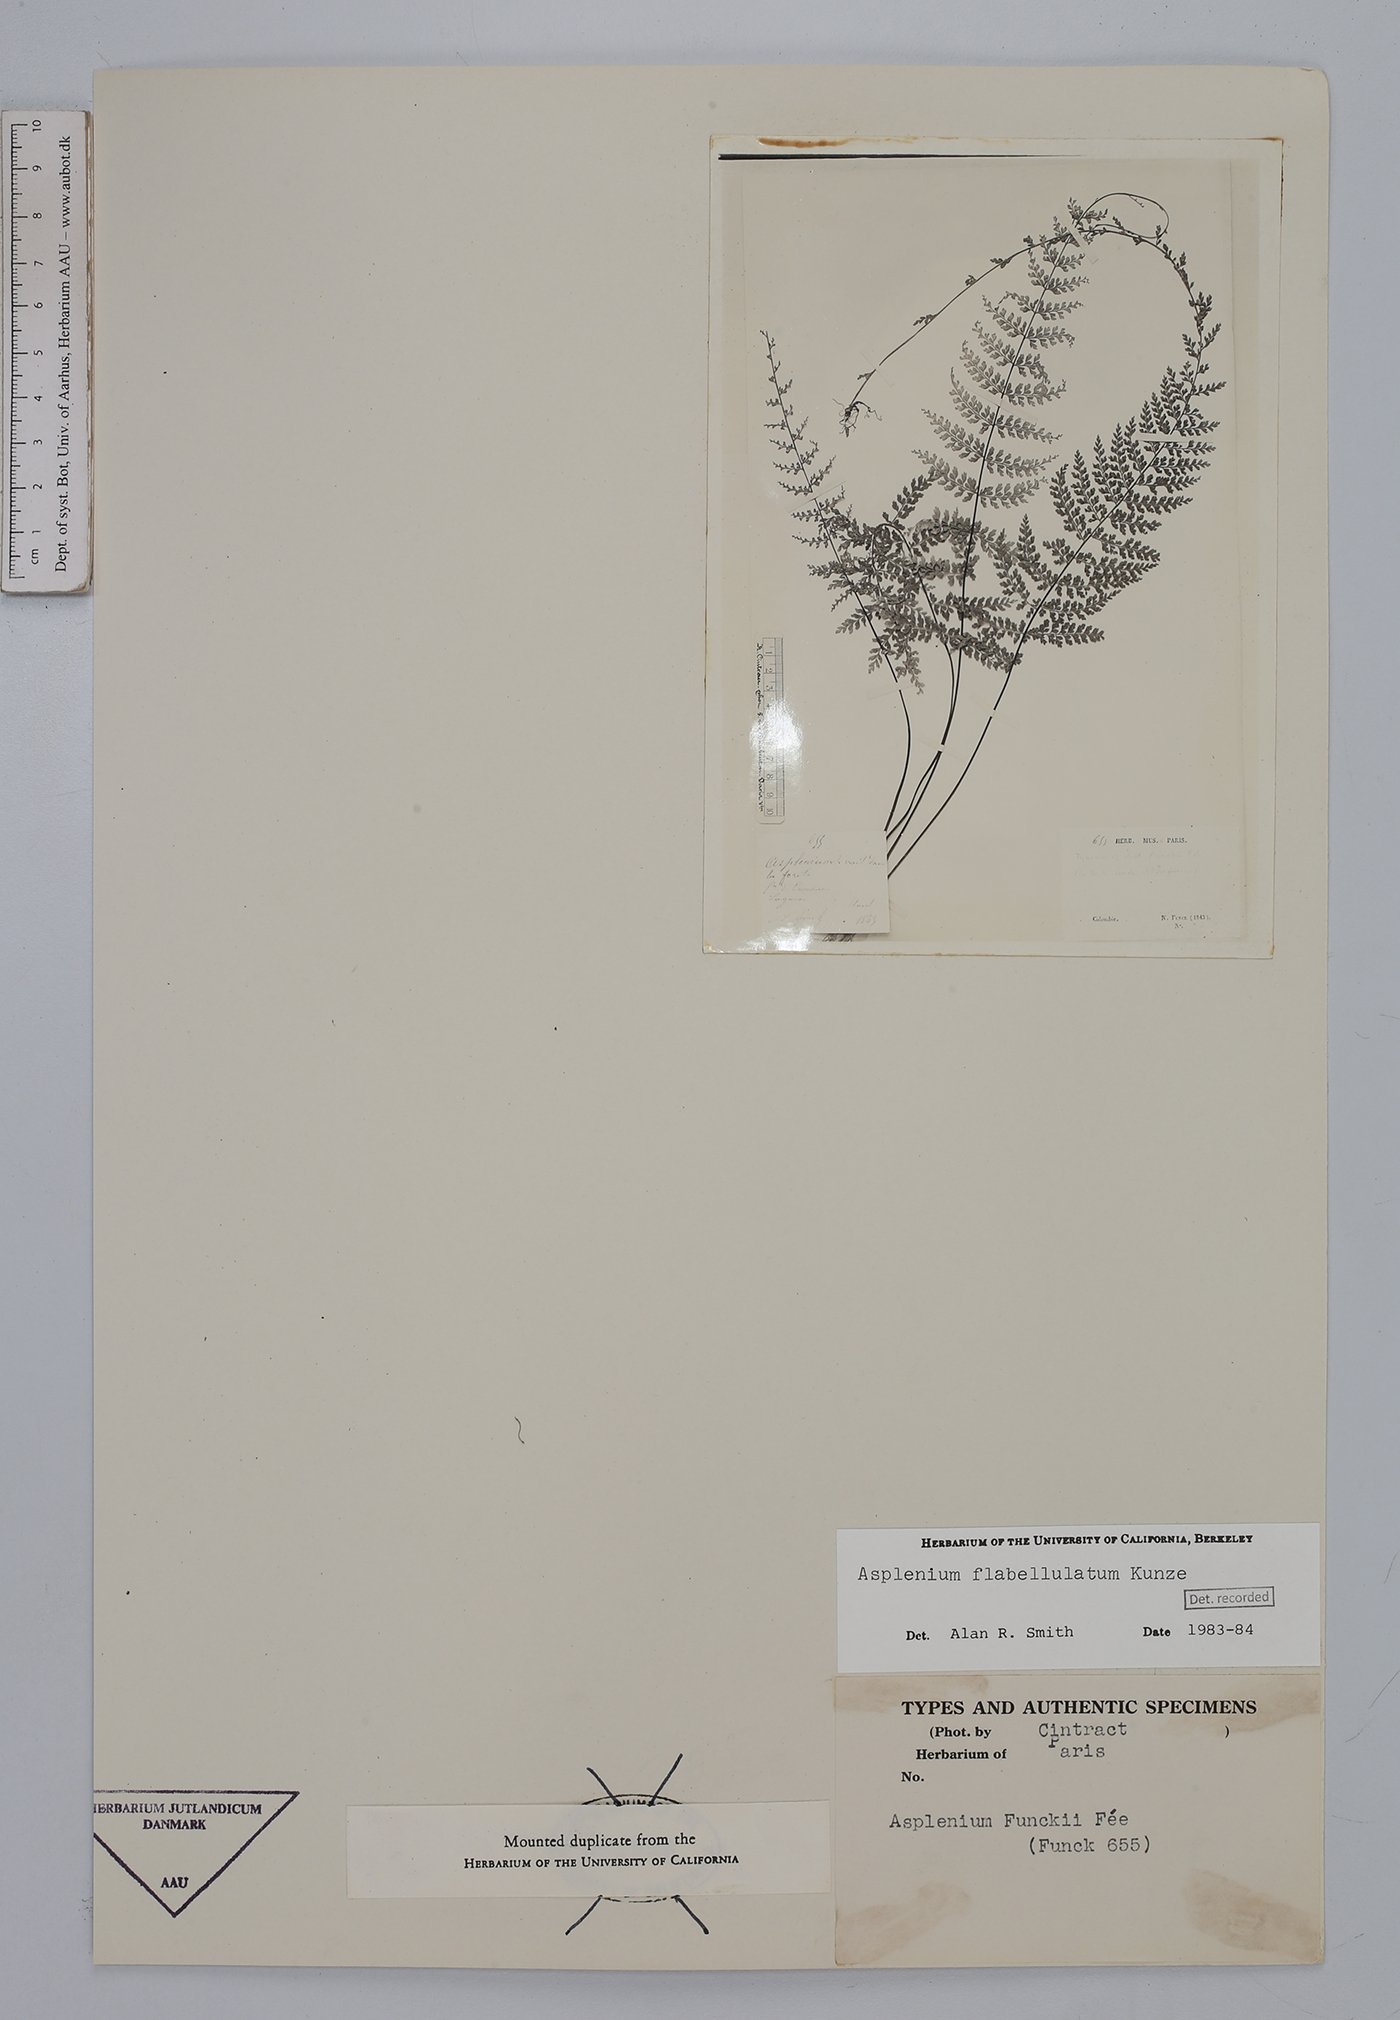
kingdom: Plantae
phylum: Tracheophyta
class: Polypodiopsida
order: Polypodiales
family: Aspleniaceae
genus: Asplenium
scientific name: Asplenium flabellulatum
